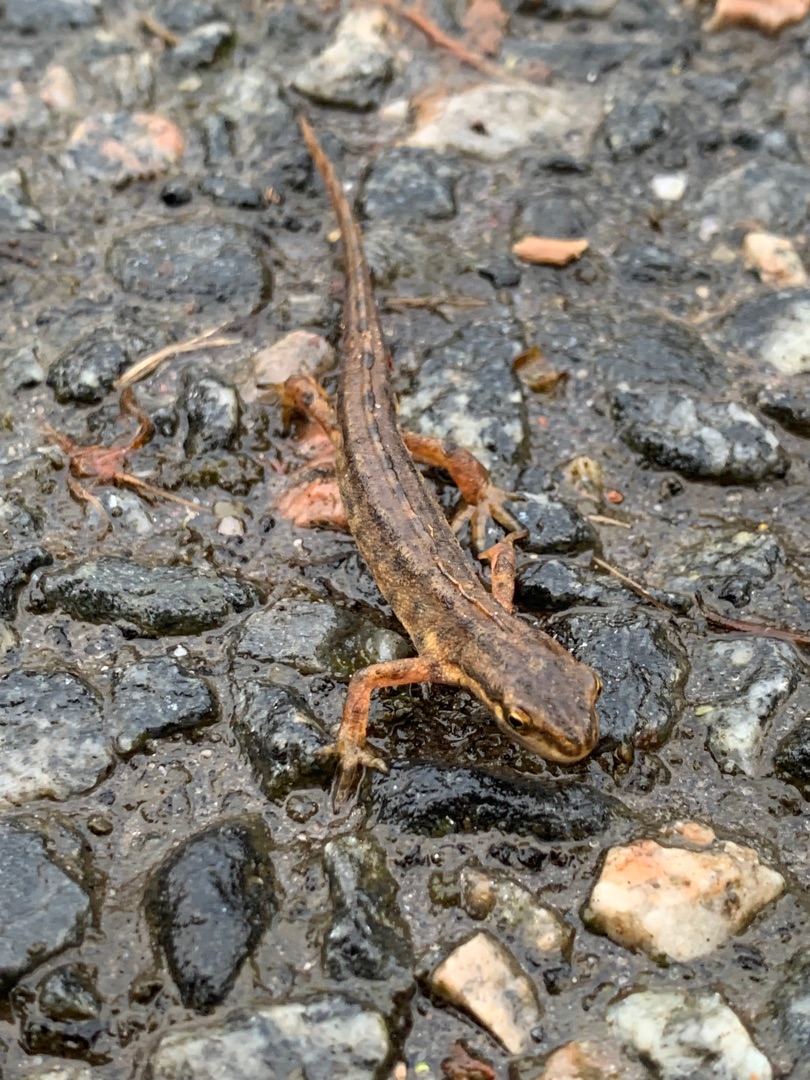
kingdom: Animalia
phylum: Chordata
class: Amphibia
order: Caudata
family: Salamandridae
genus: Lissotriton
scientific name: Lissotriton vulgaris
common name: Lille vandsalamander
